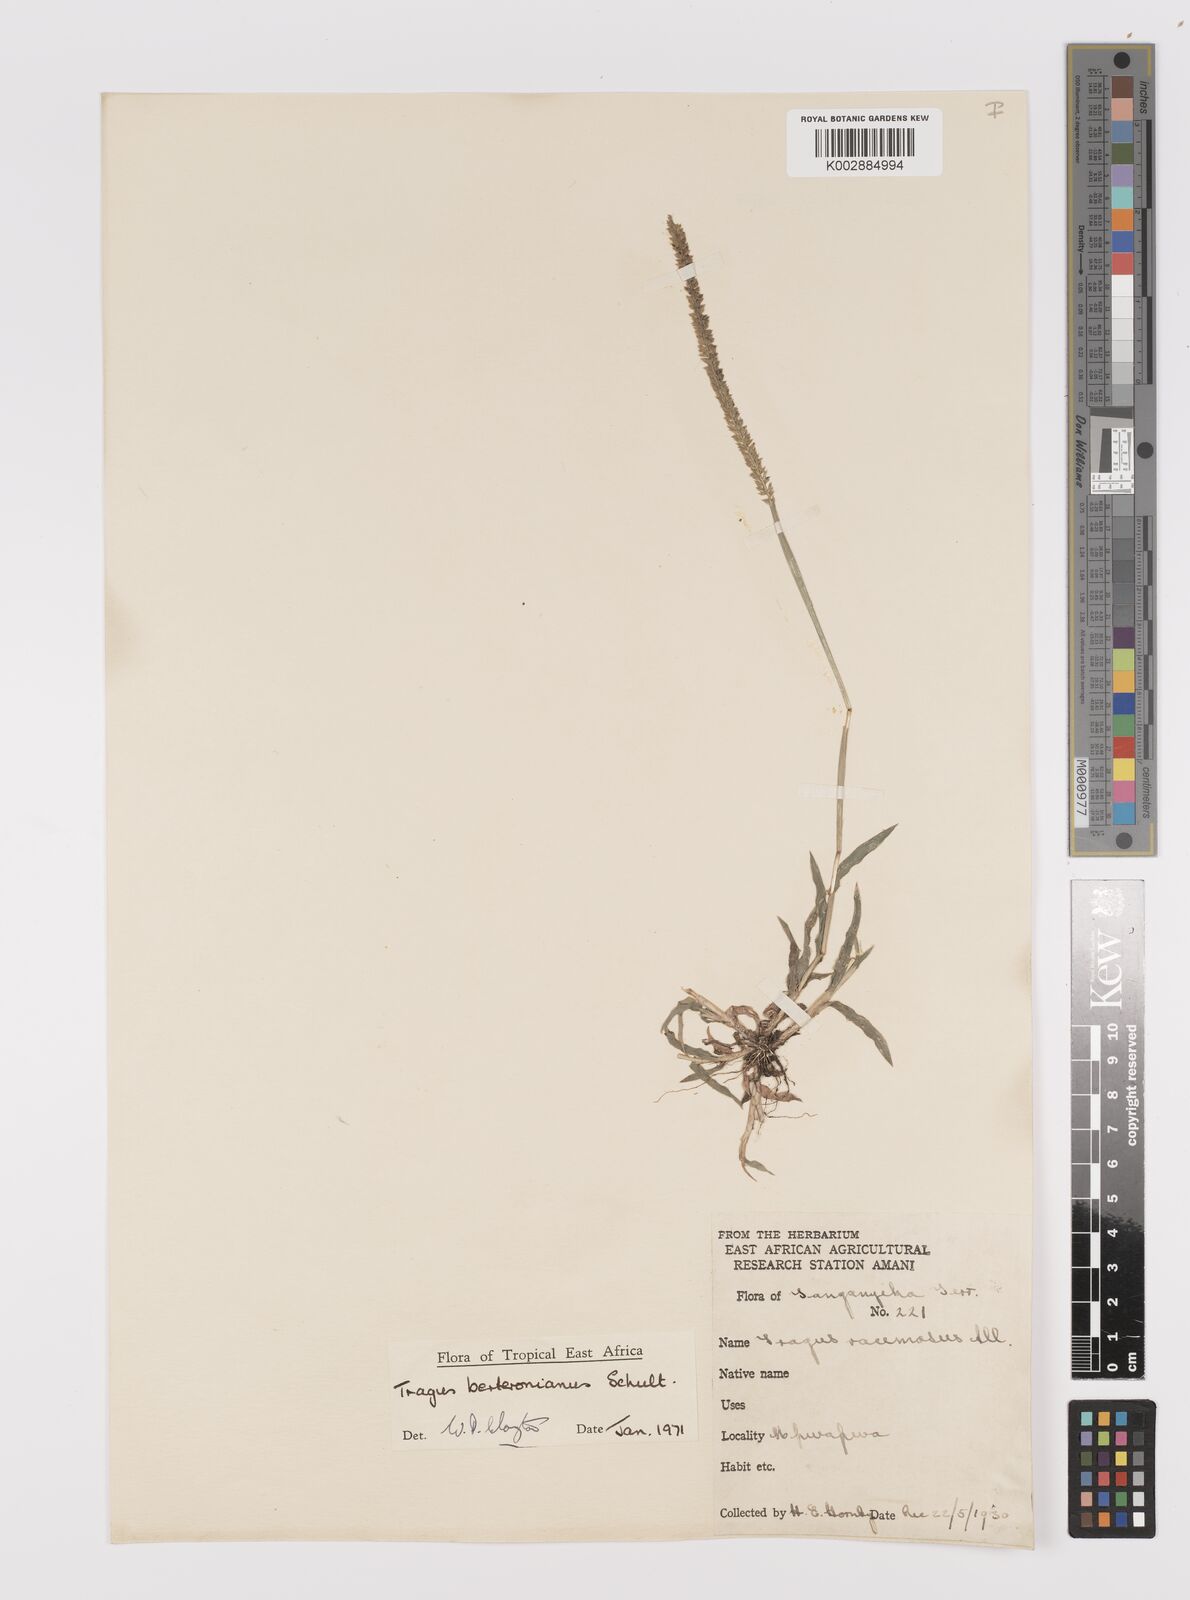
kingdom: Plantae
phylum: Tracheophyta
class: Liliopsida
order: Poales
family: Poaceae
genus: Tragus
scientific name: Tragus berteronianus
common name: African bur-grass
